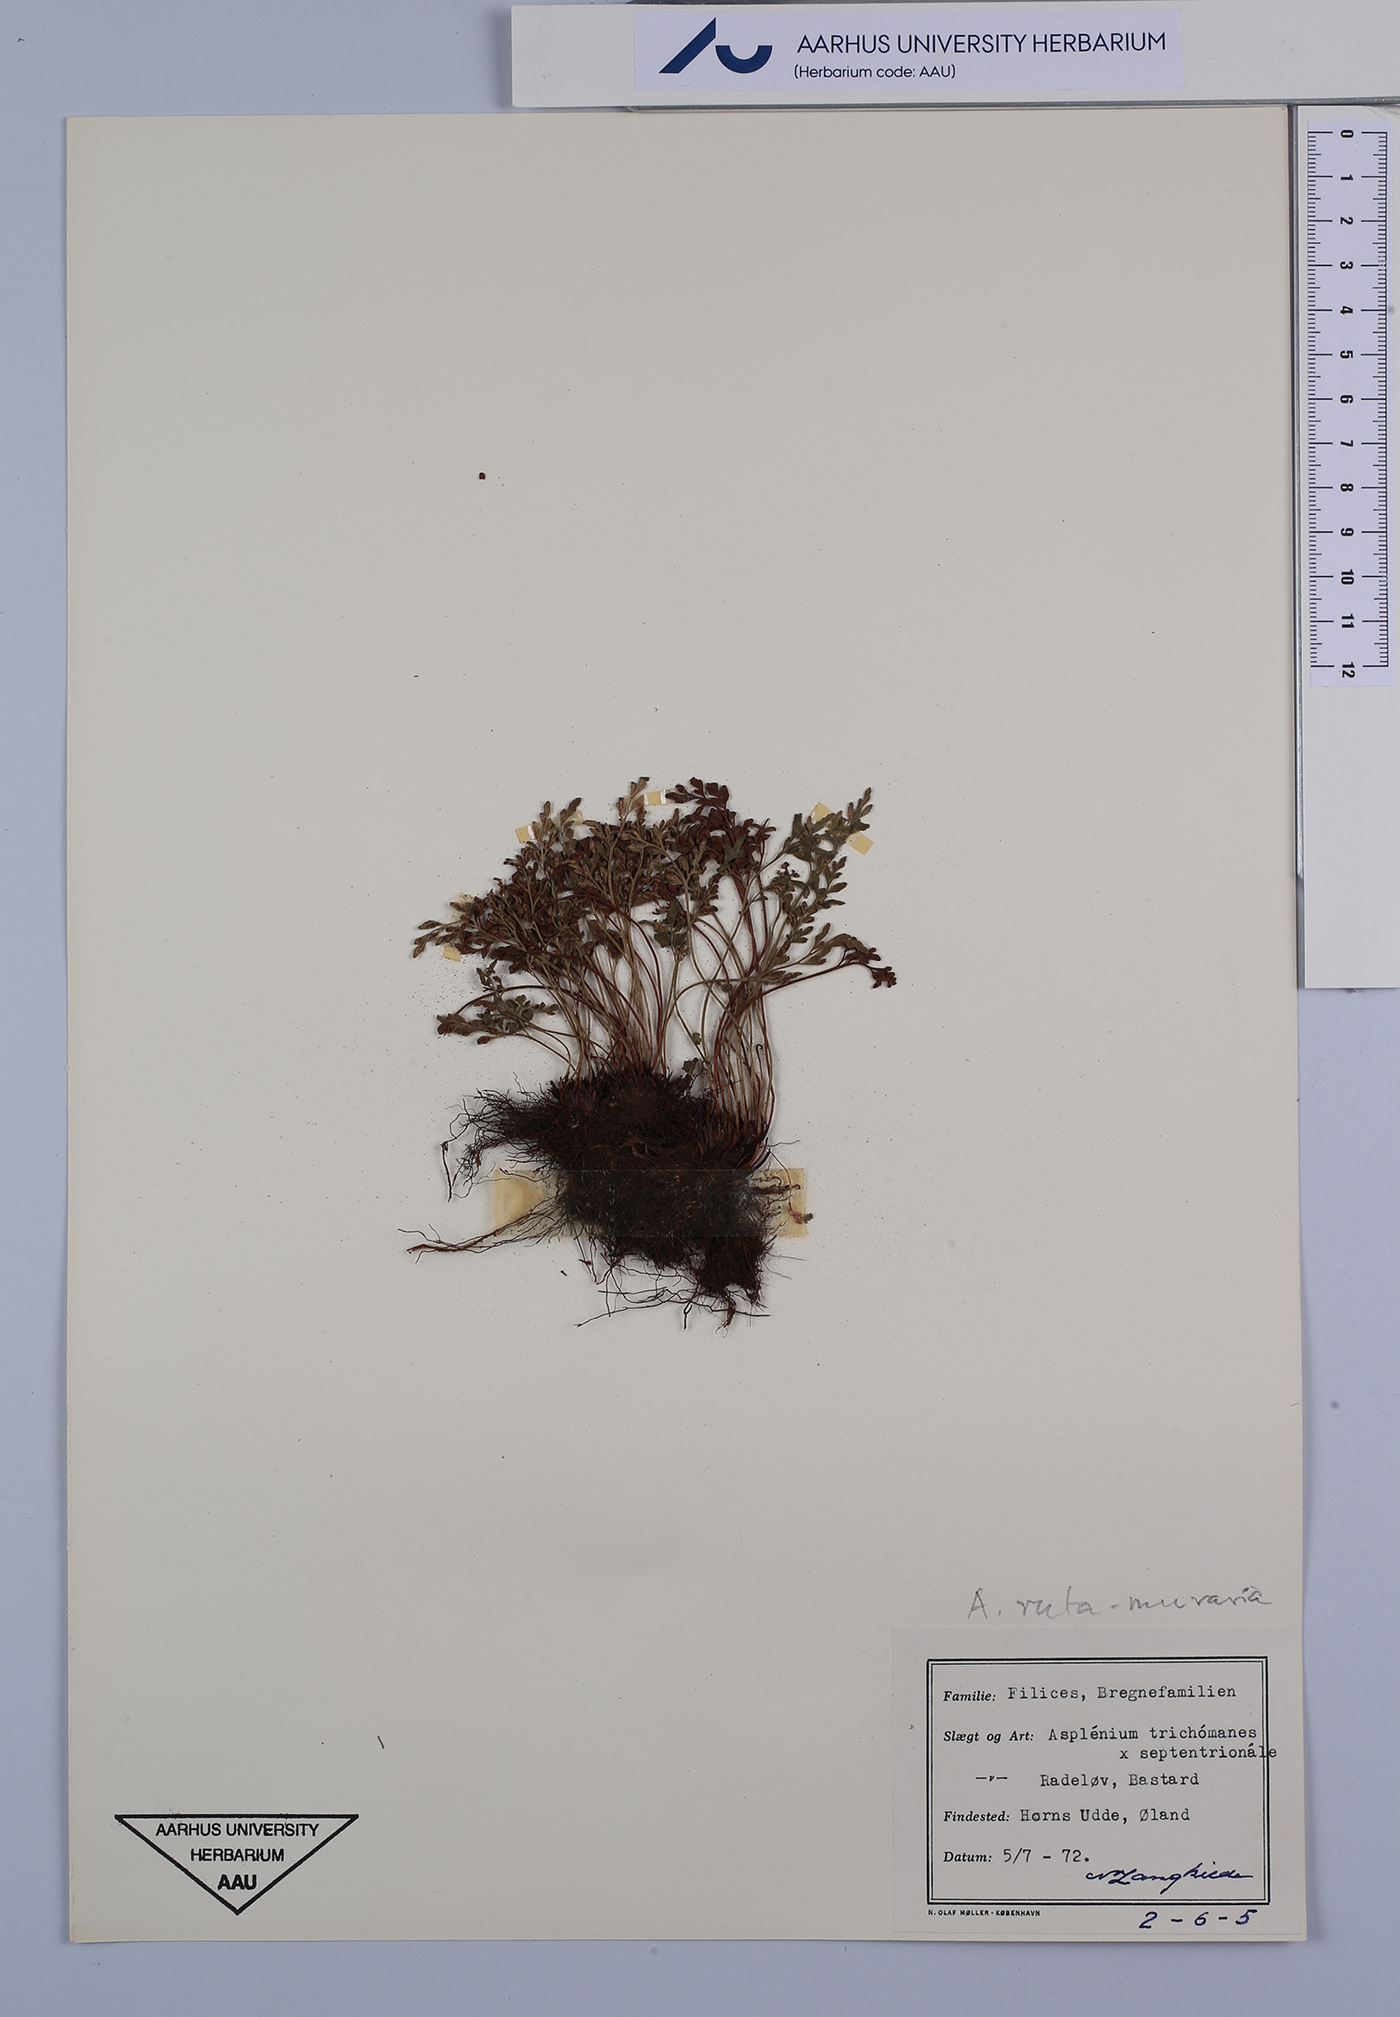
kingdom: Plantae
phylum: Tracheophyta
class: Polypodiopsida
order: Polypodiales
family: Aspleniaceae
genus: Asplenium
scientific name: Asplenium ruta-muraria
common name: Wall-rue
